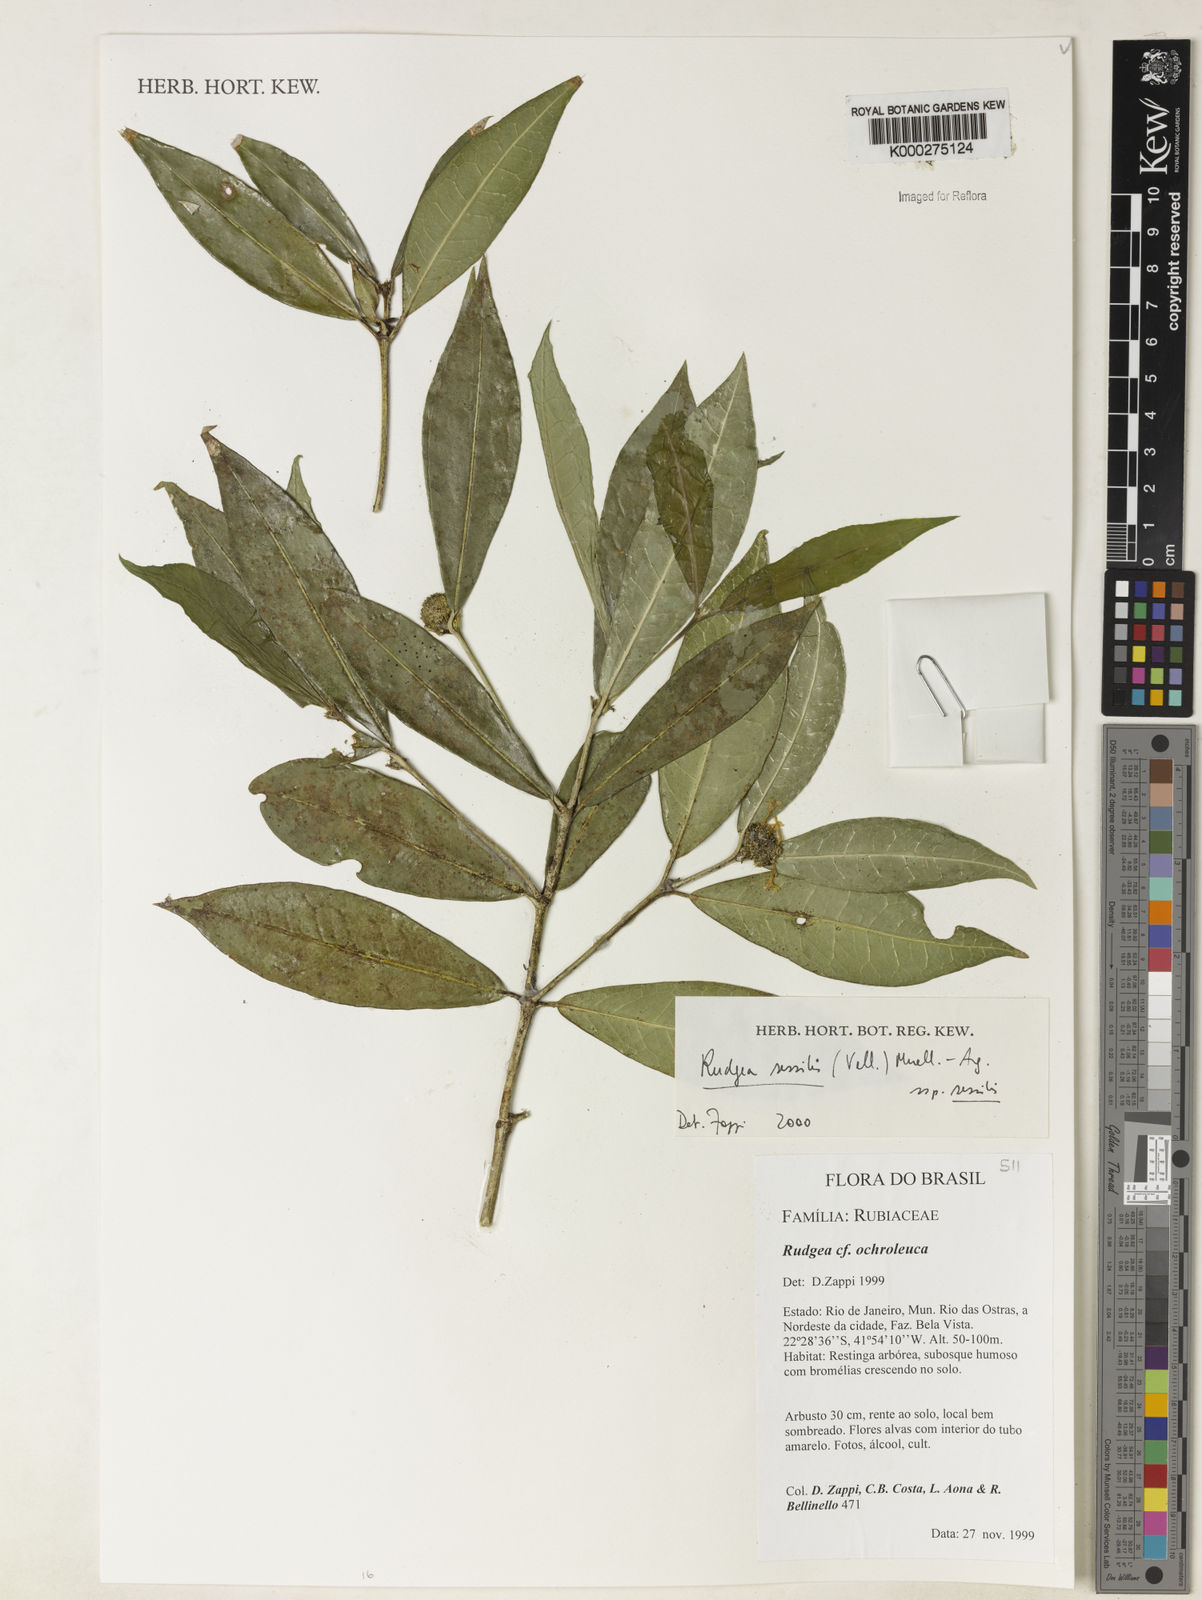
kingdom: Plantae
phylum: Tracheophyta
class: Magnoliopsida
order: Gentianales
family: Rubiaceae
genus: Rudgea
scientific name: Rudgea sessilis
